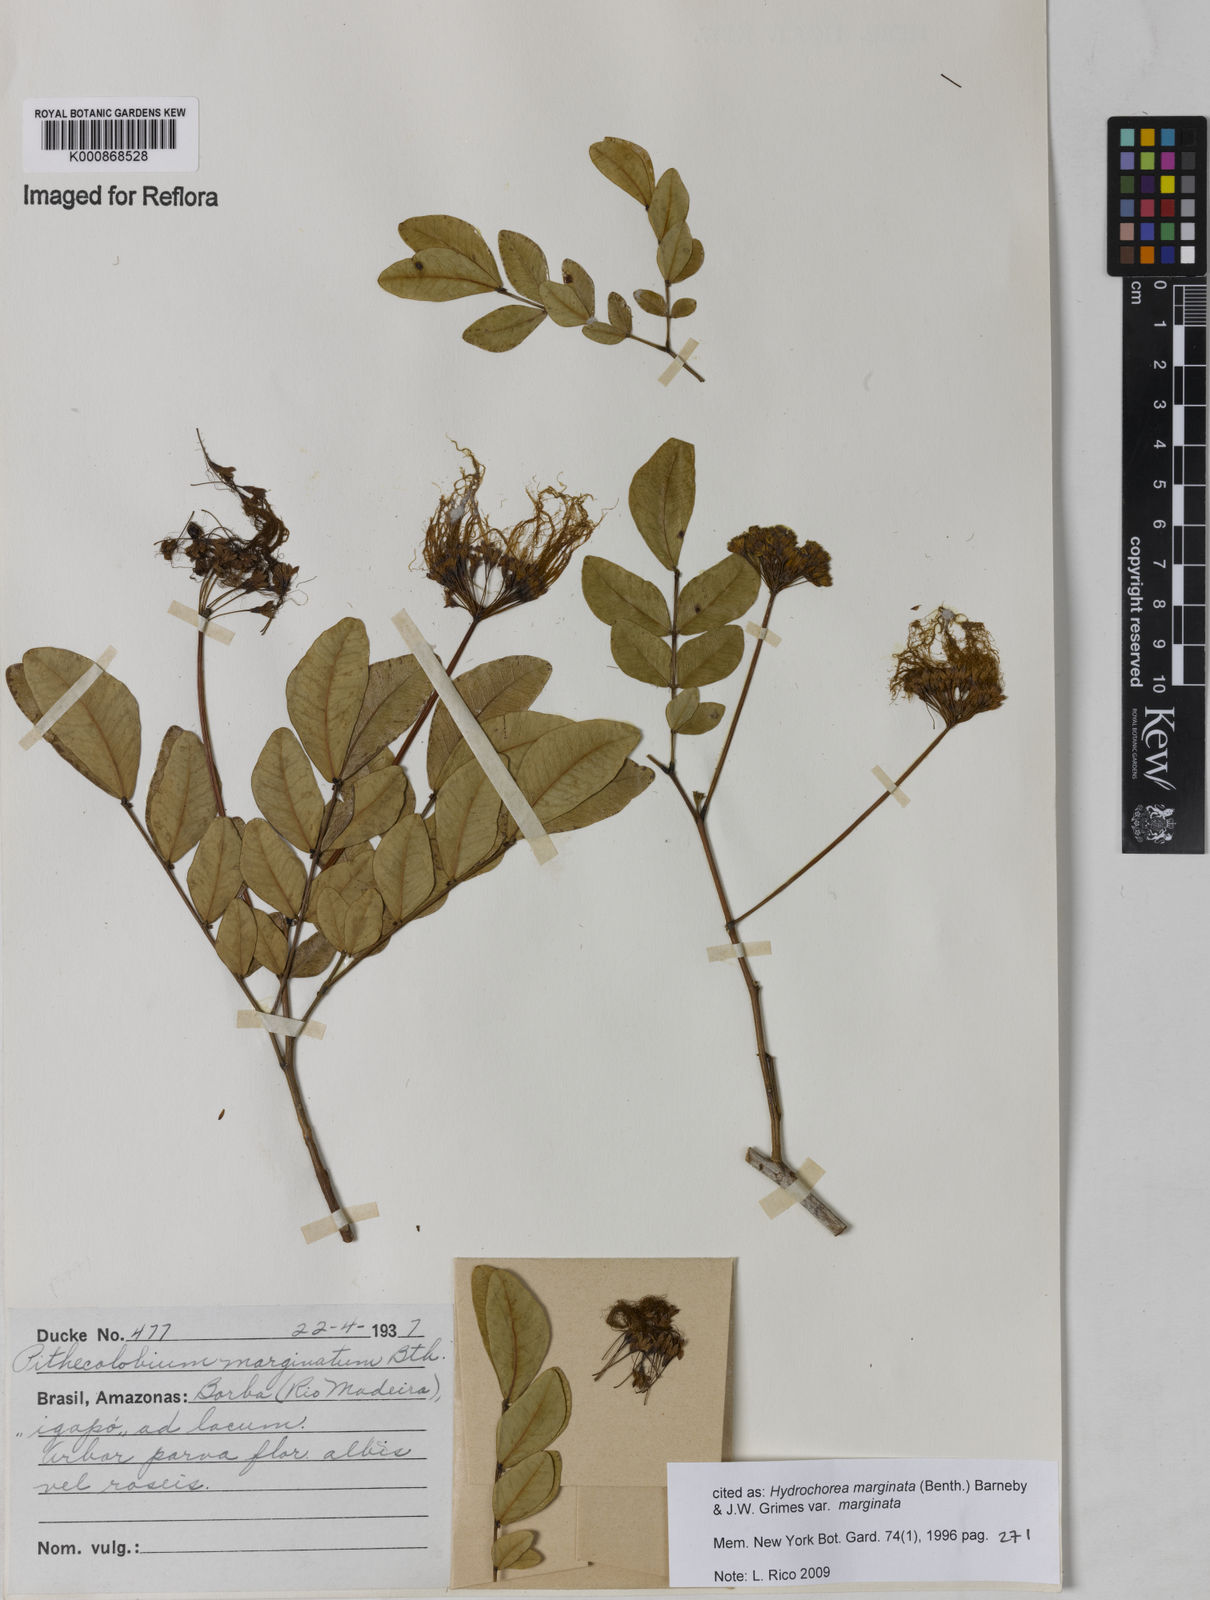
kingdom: Plantae
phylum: Tracheophyta
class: Magnoliopsida
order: Fabales
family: Fabaceae
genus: Hydrochorea
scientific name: Hydrochorea marginata
